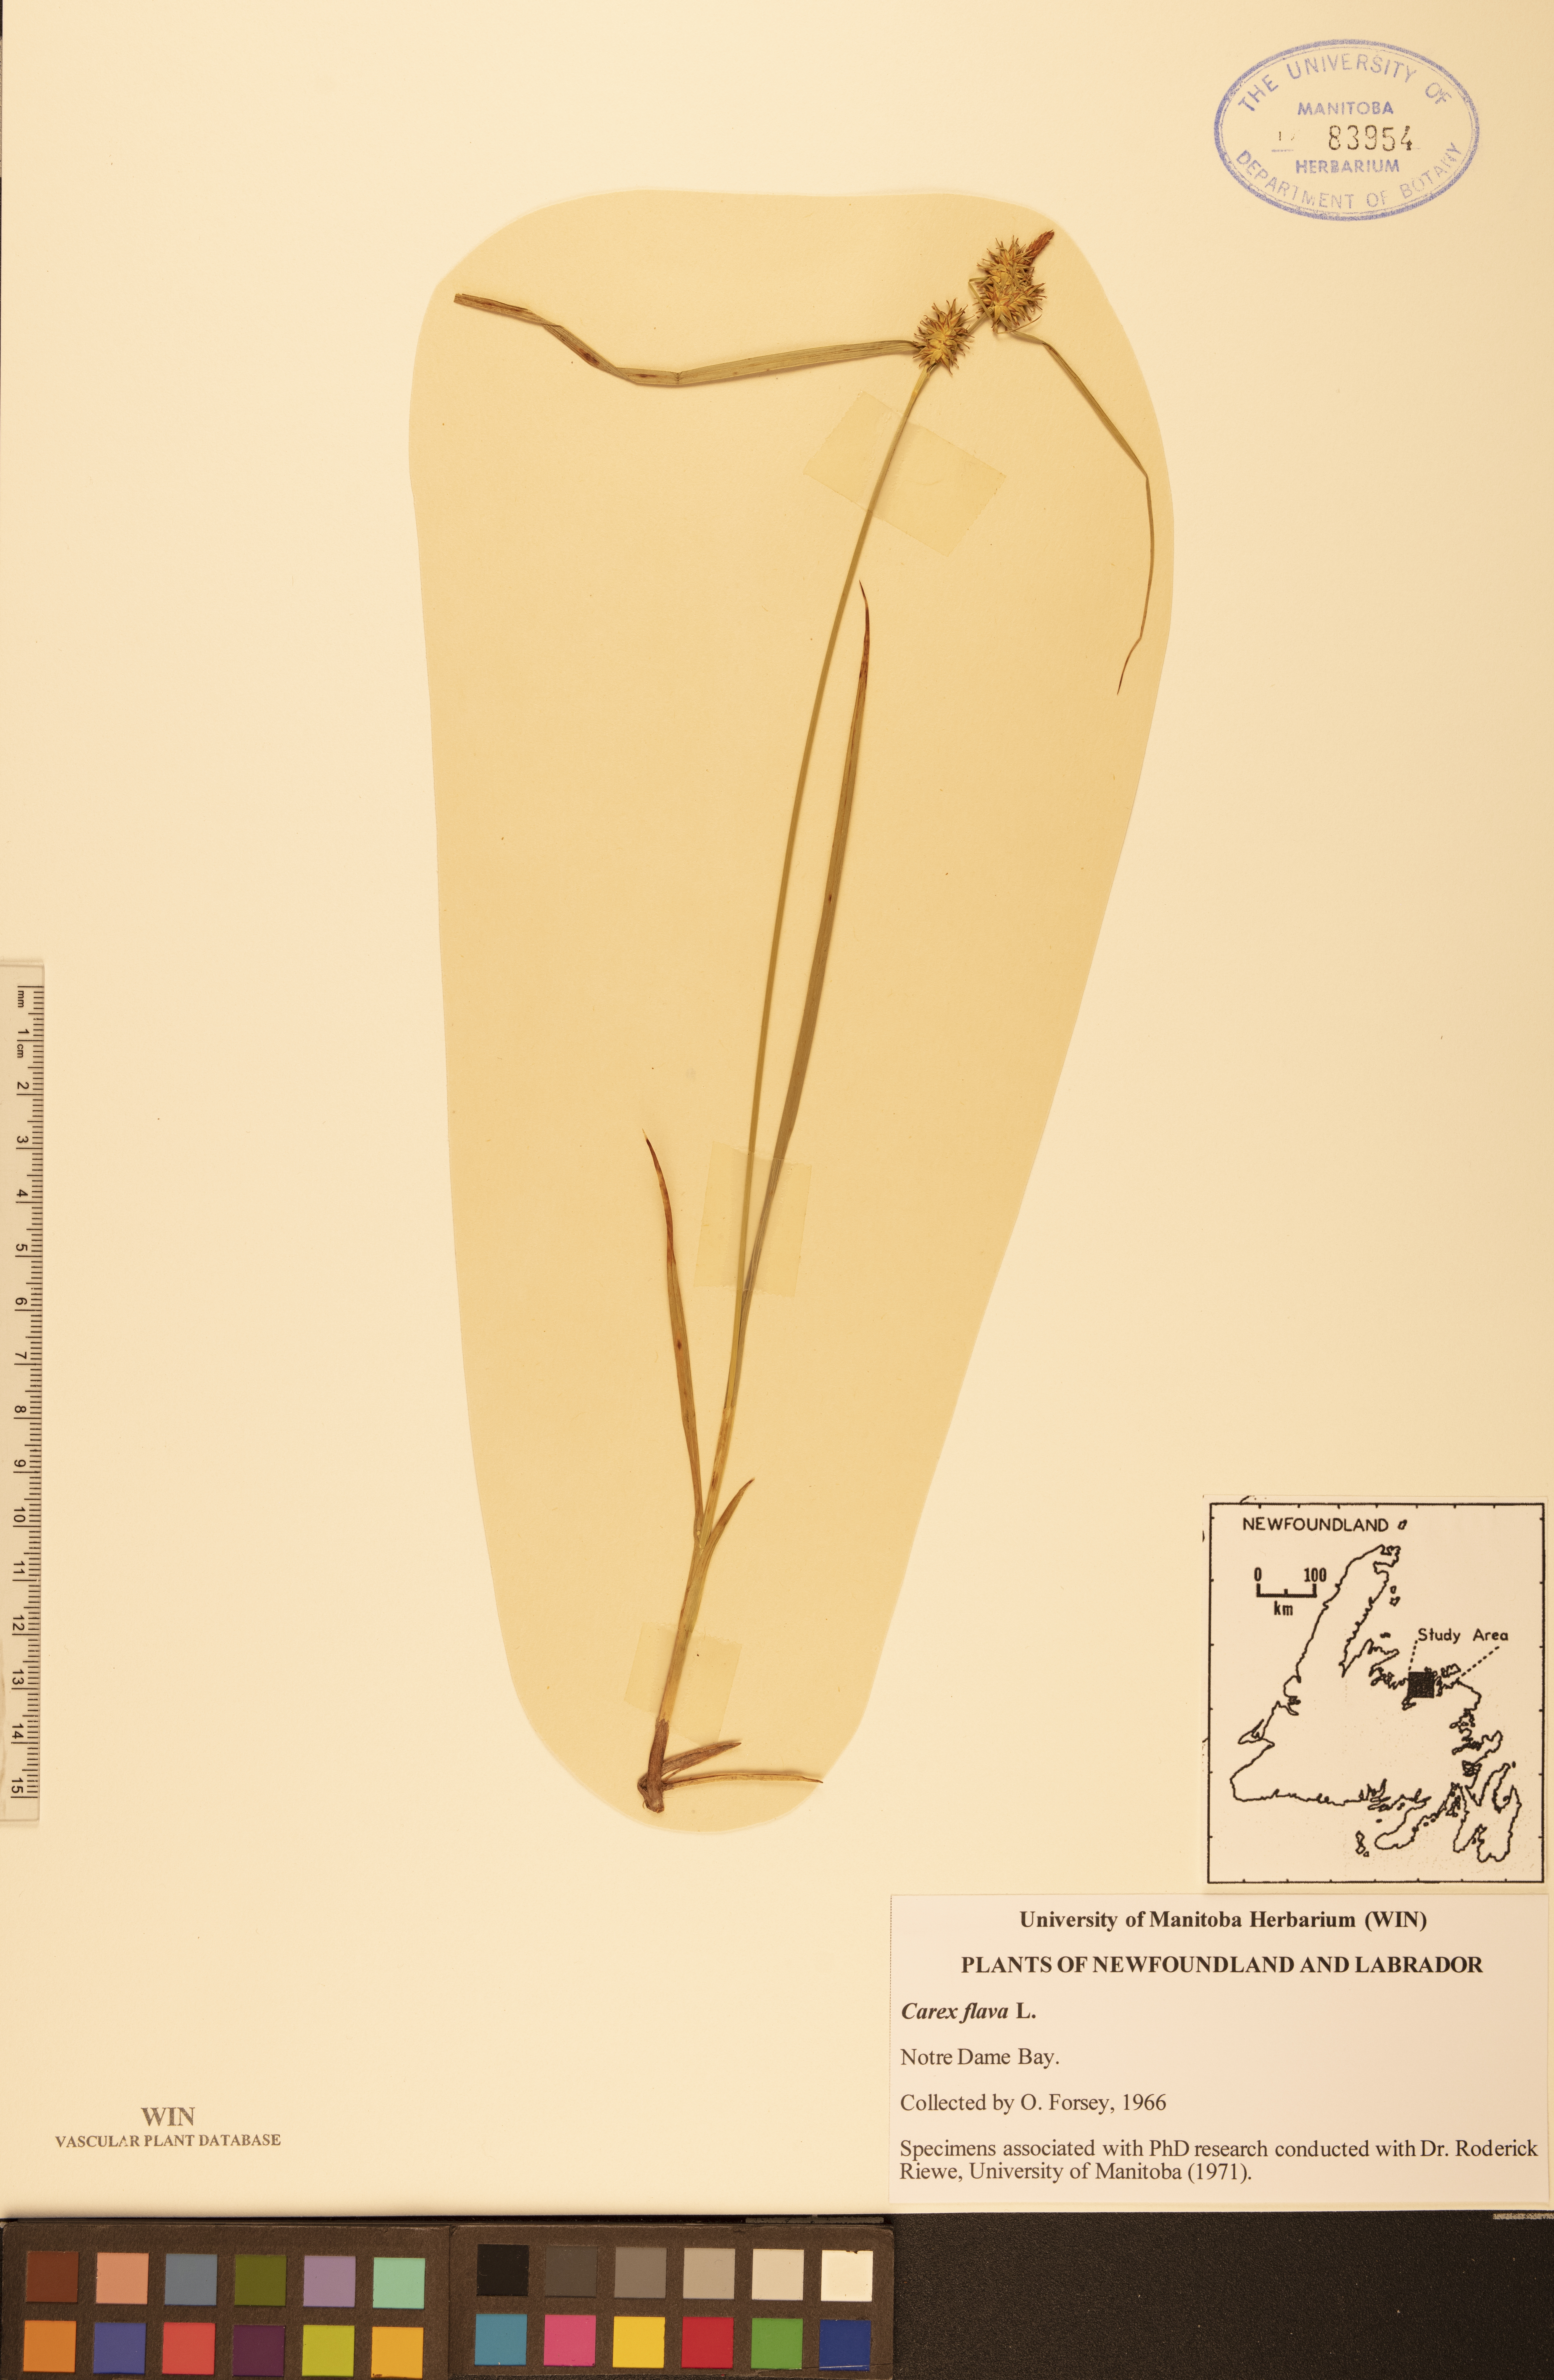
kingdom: Plantae
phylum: Tracheophyta
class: Liliopsida
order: Poales
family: Cyperaceae
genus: Carex
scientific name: Carex flava
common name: Large yellow-sedge
